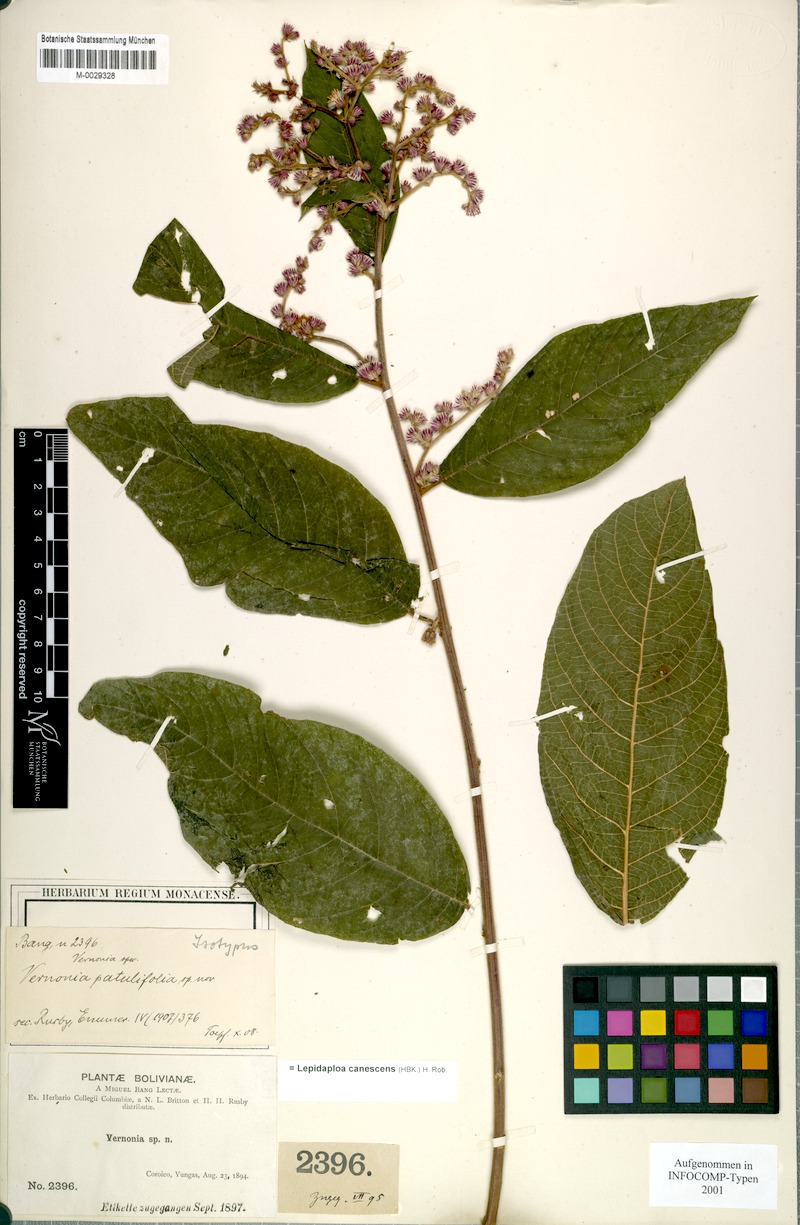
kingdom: Plantae
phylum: Tracheophyta
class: Magnoliopsida
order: Asterales
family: Asteraceae
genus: Lepidaploa
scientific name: Lepidaploa canescens
